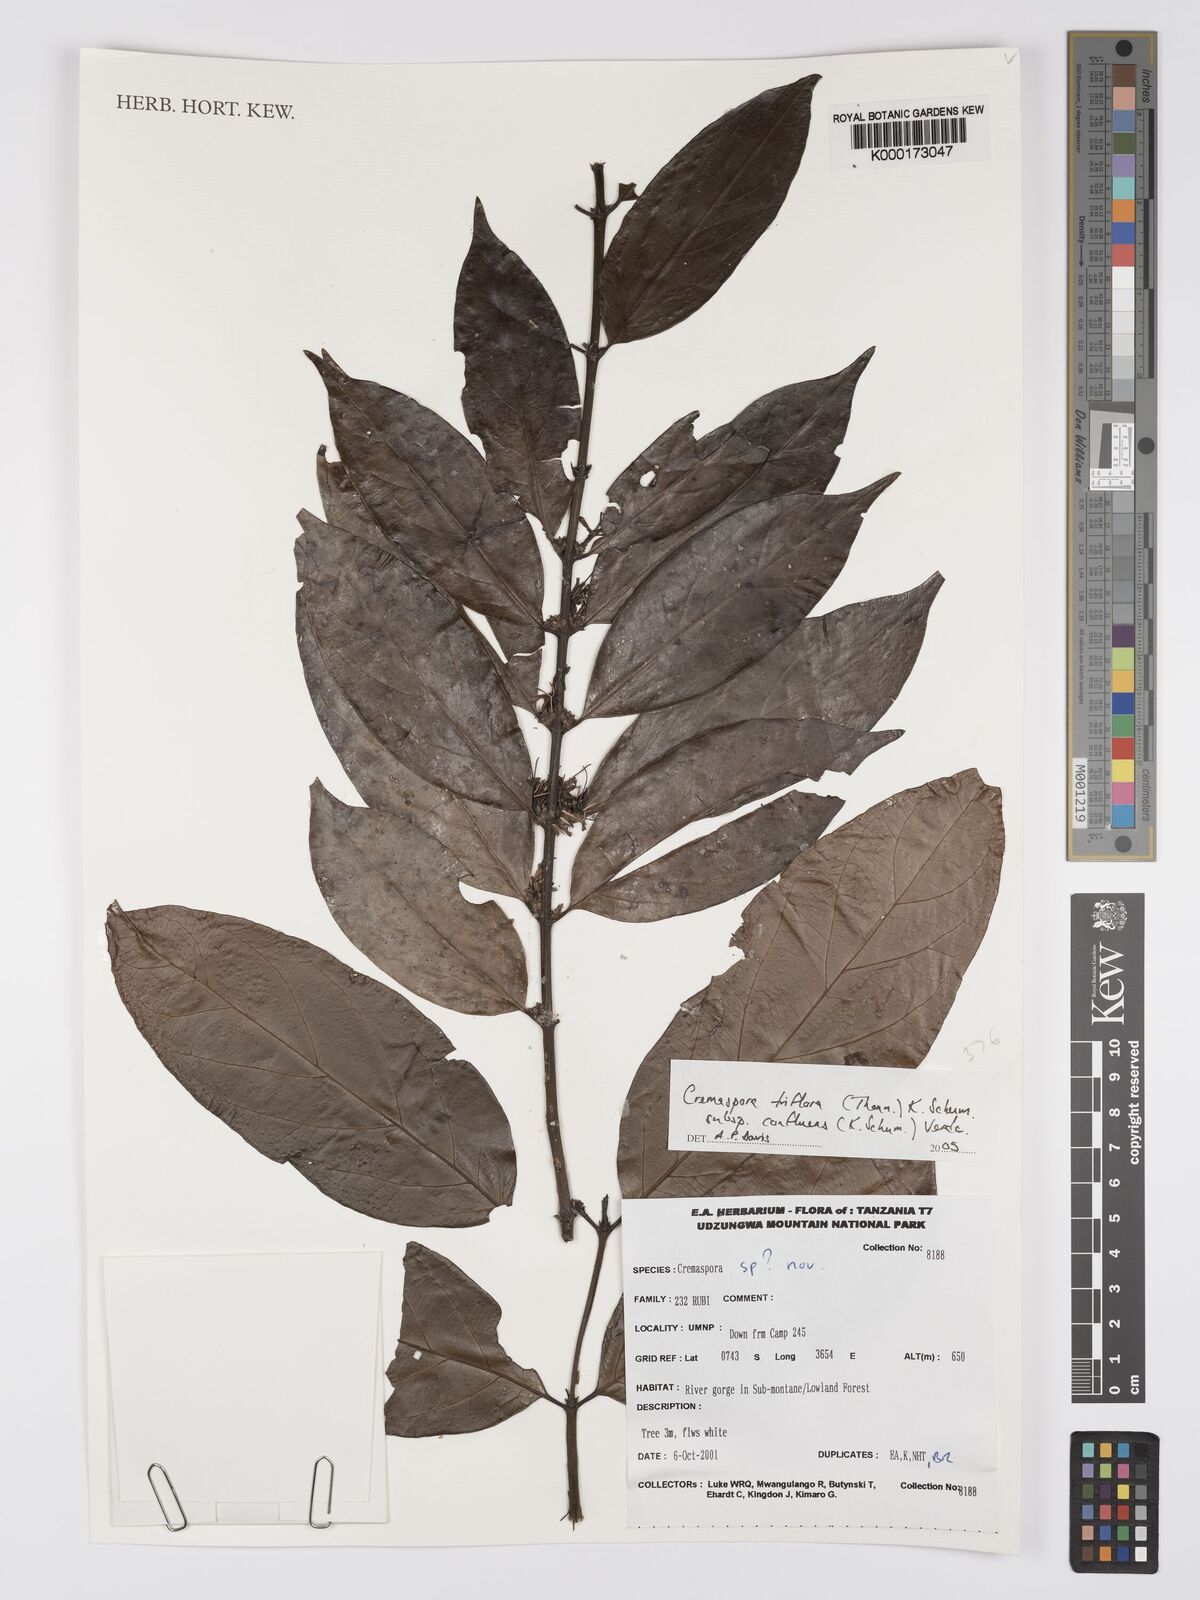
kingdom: Plantae
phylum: Tracheophyta
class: Magnoliopsida
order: Gentianales
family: Rubiaceae
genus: Cremaspora
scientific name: Cremaspora triflora
